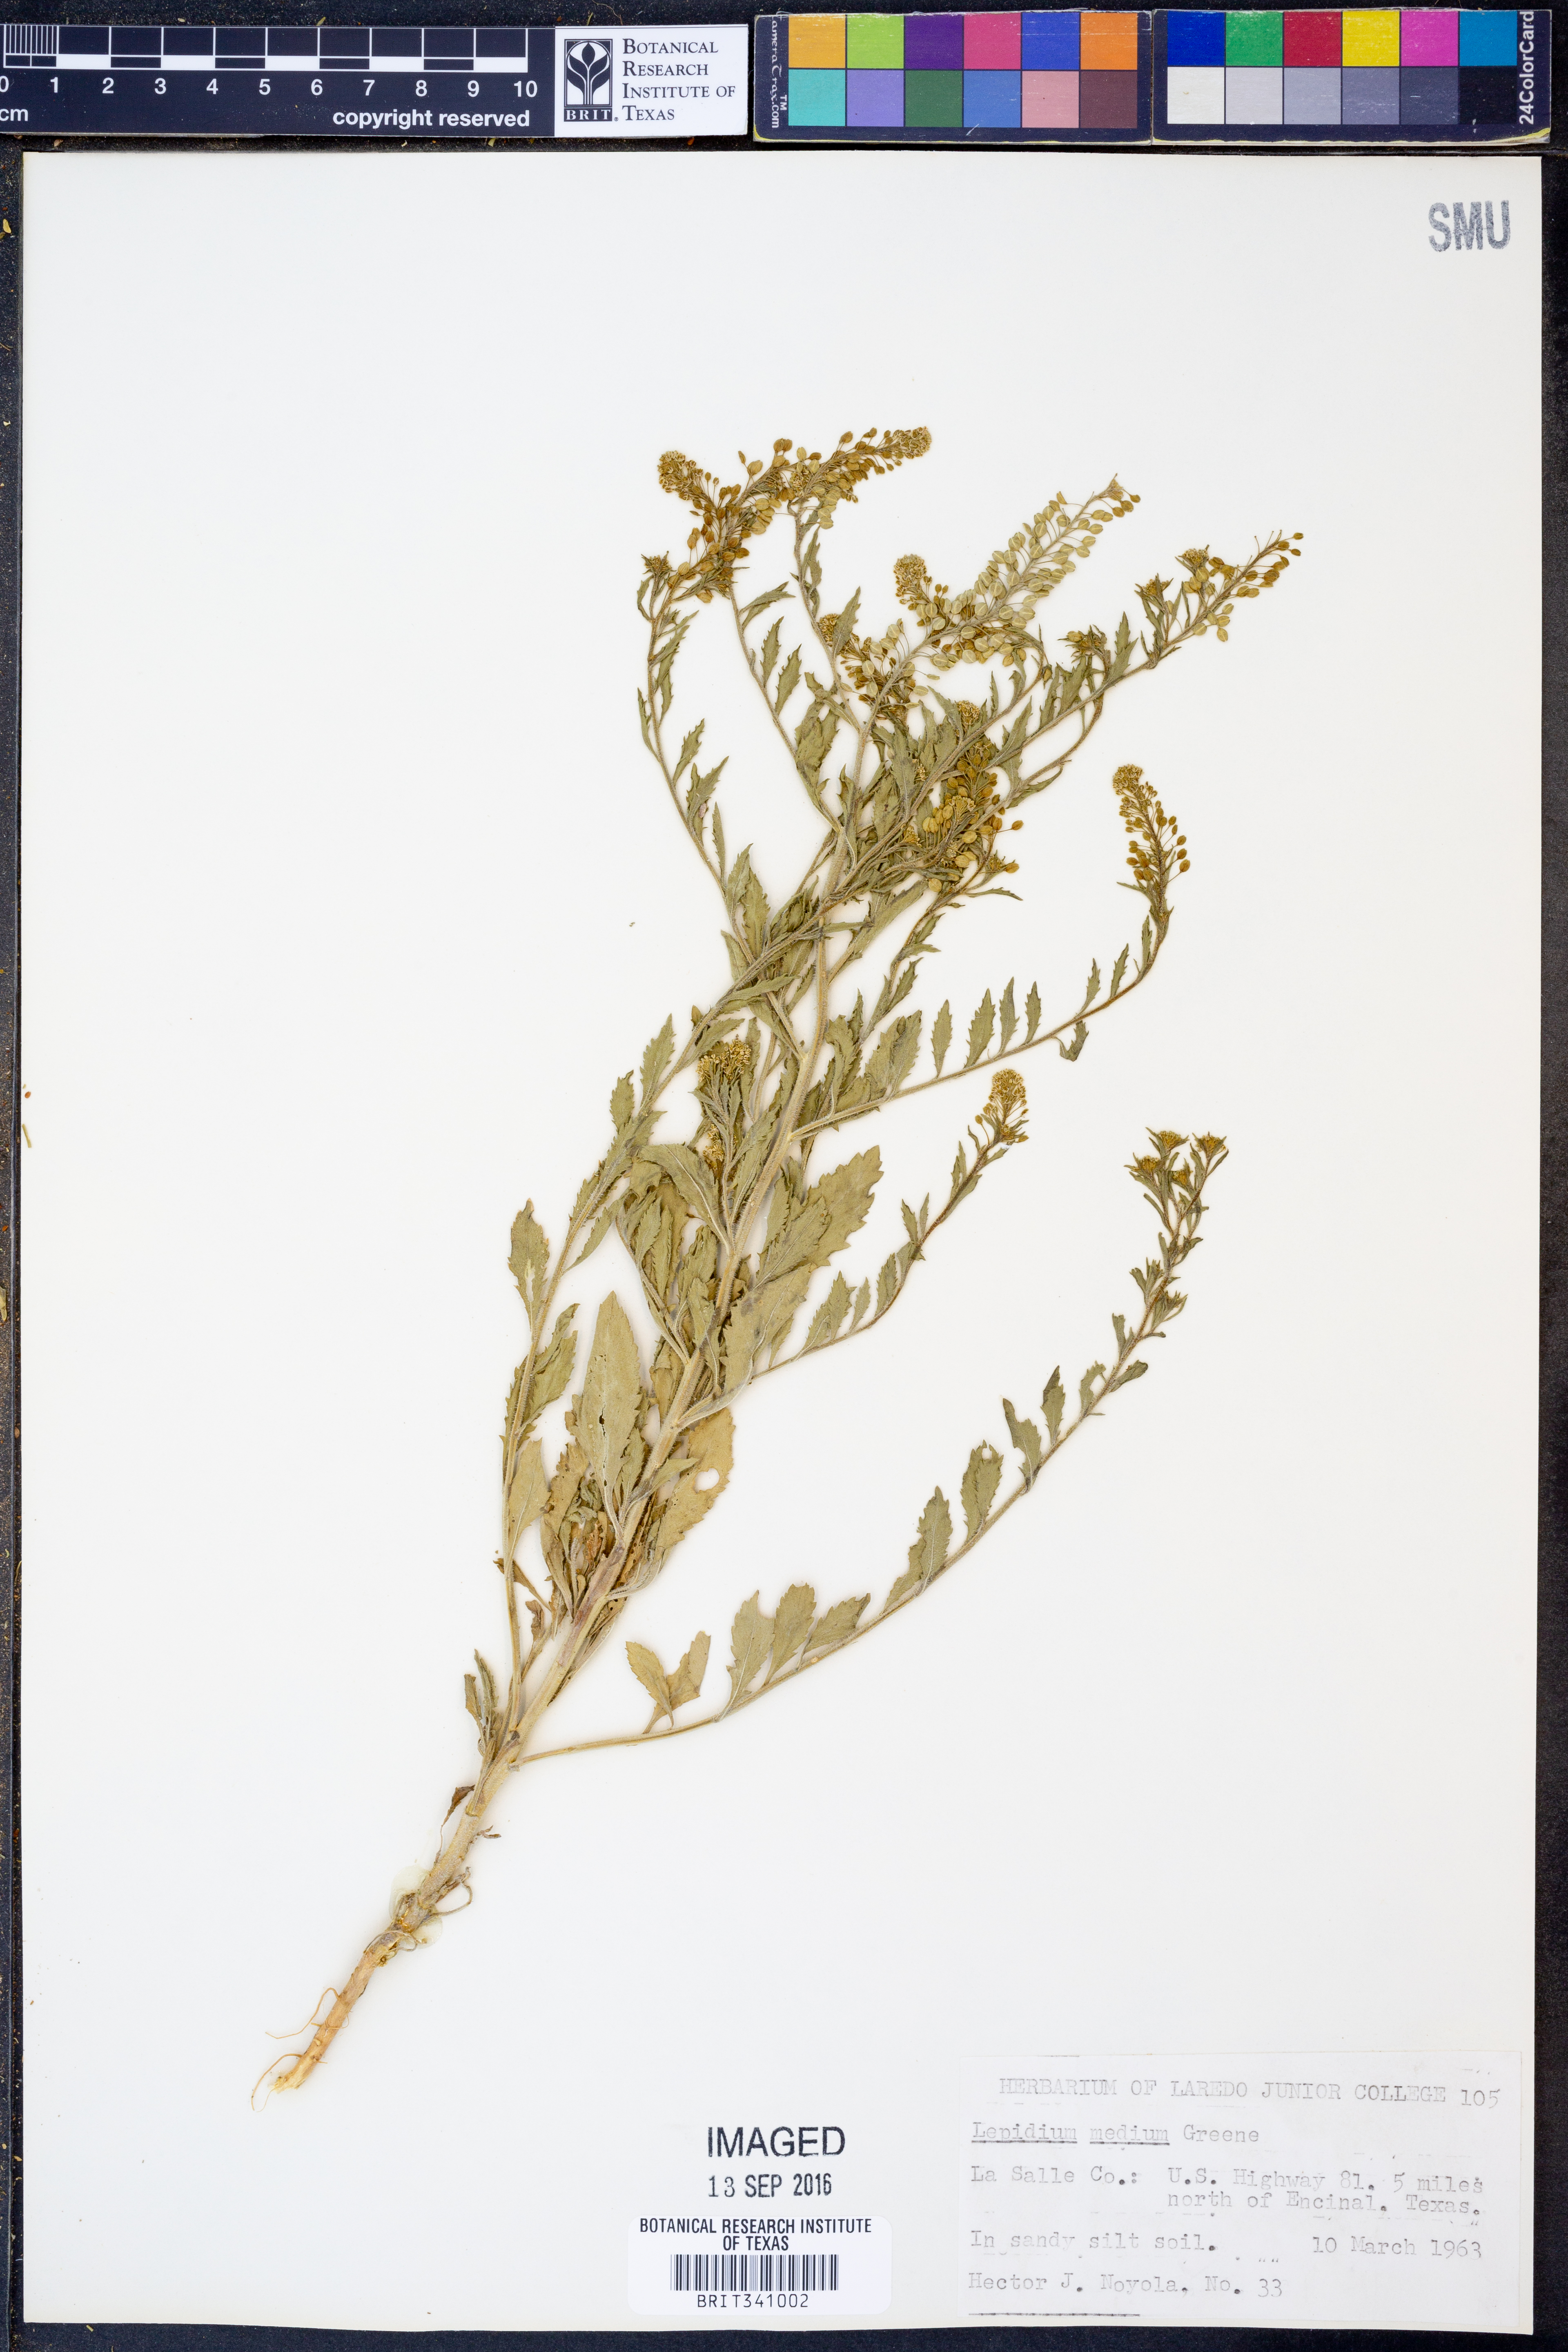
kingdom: Plantae
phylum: Tracheophyta
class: Magnoliopsida
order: Brassicales
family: Brassicaceae
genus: Lepidium
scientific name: Lepidium virginicum
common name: Least pepperwort
